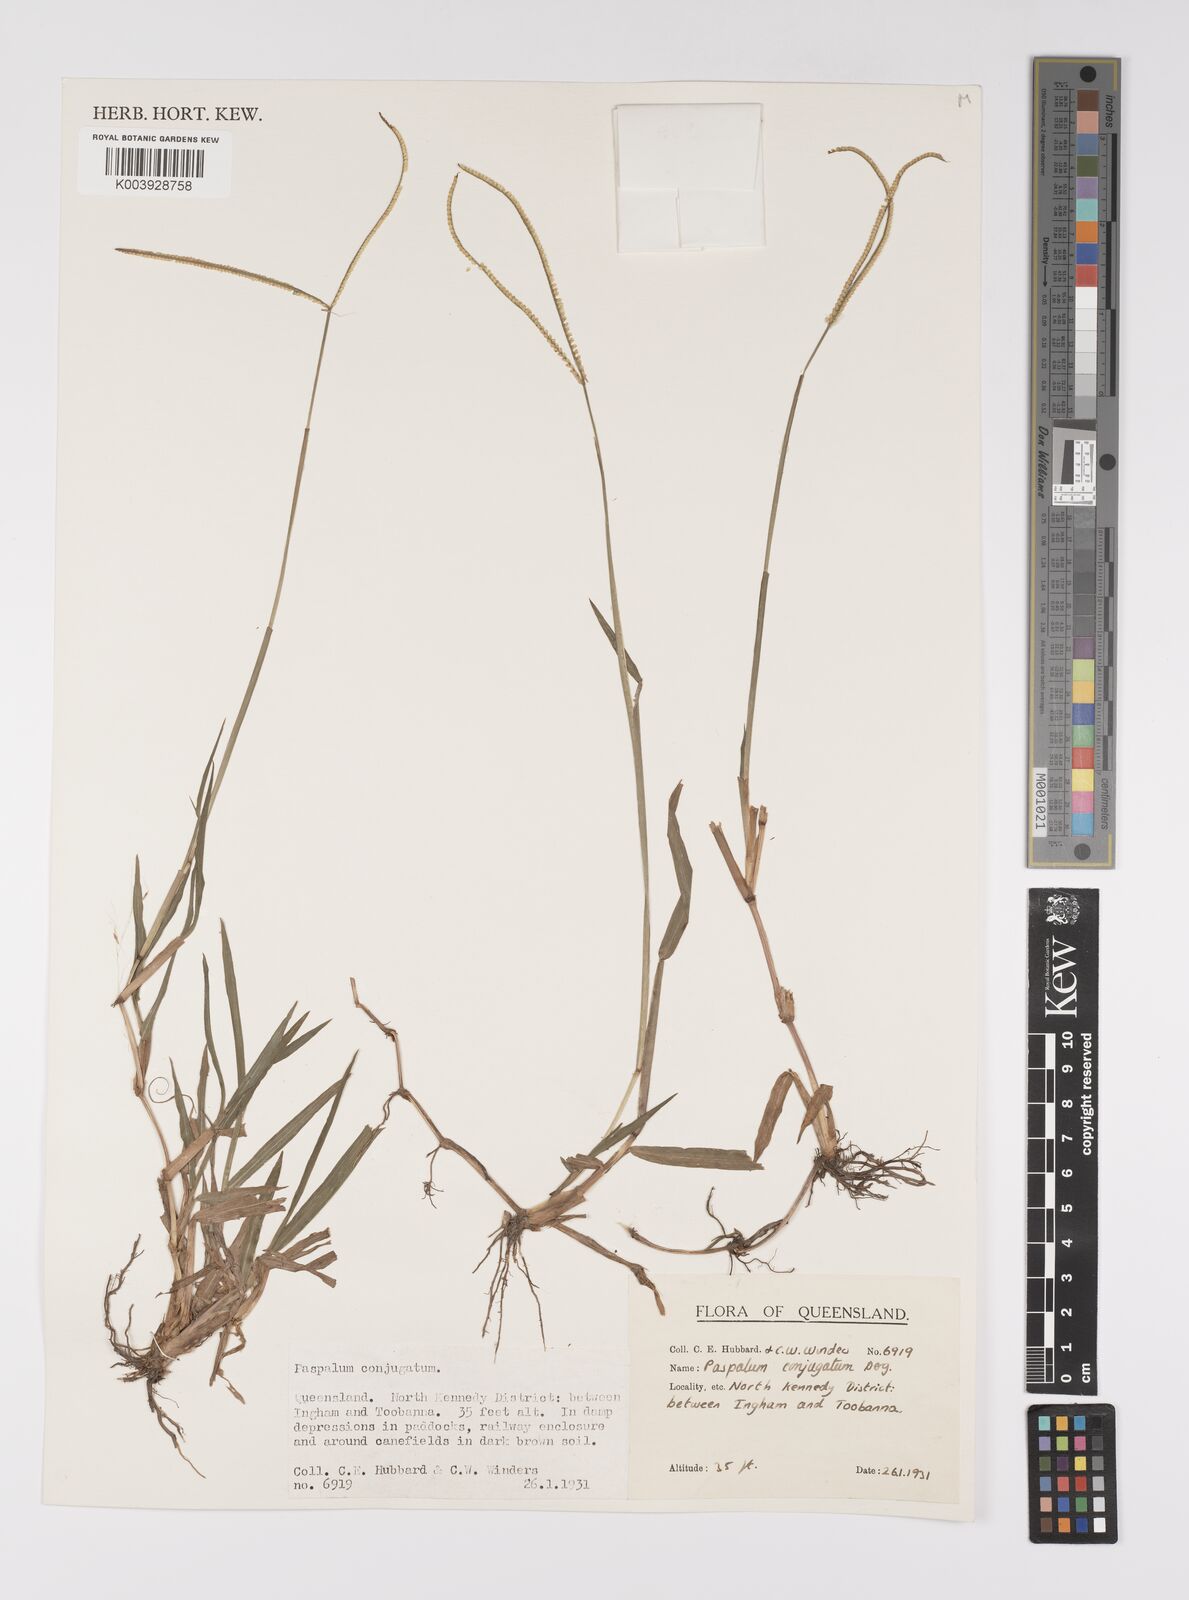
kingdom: Plantae
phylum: Tracheophyta
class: Liliopsida
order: Poales
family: Poaceae
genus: Paspalum
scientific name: Paspalum conjugatum
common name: Hilograss
